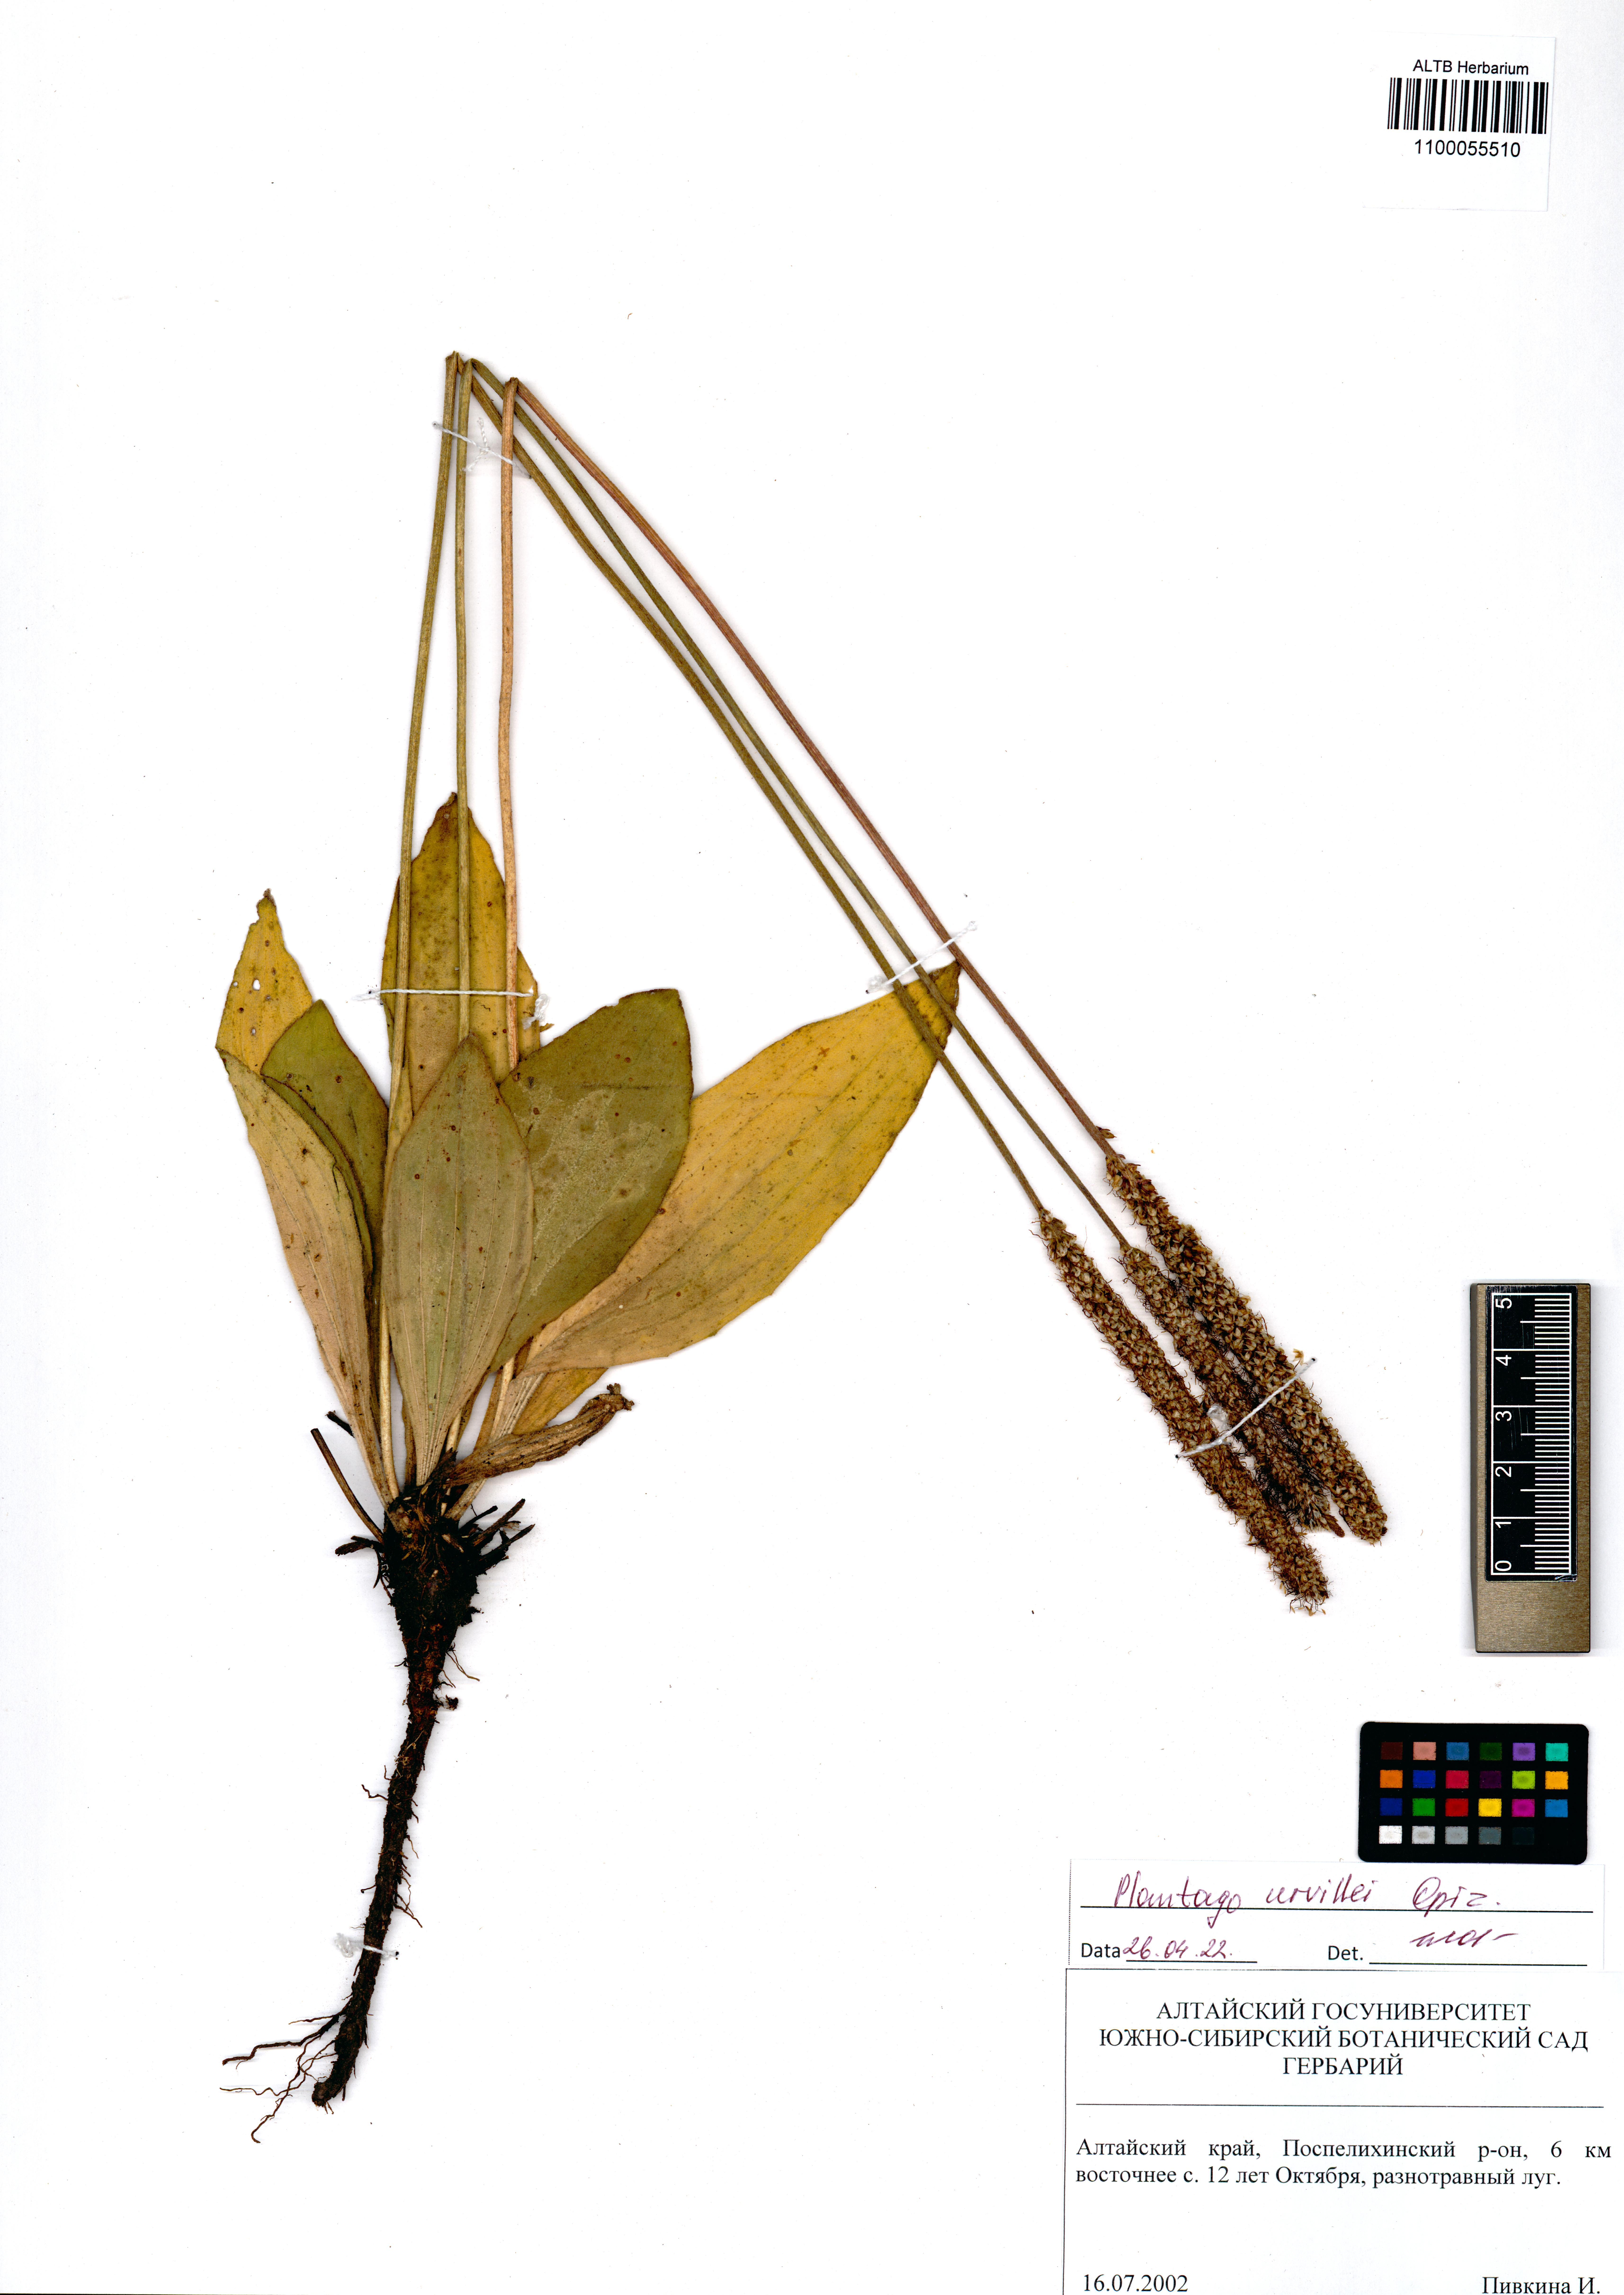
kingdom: Plantae
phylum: Tracheophyta
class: Magnoliopsida
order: Lamiales
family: Plantaginaceae
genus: Plantago
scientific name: Plantago urvillei
